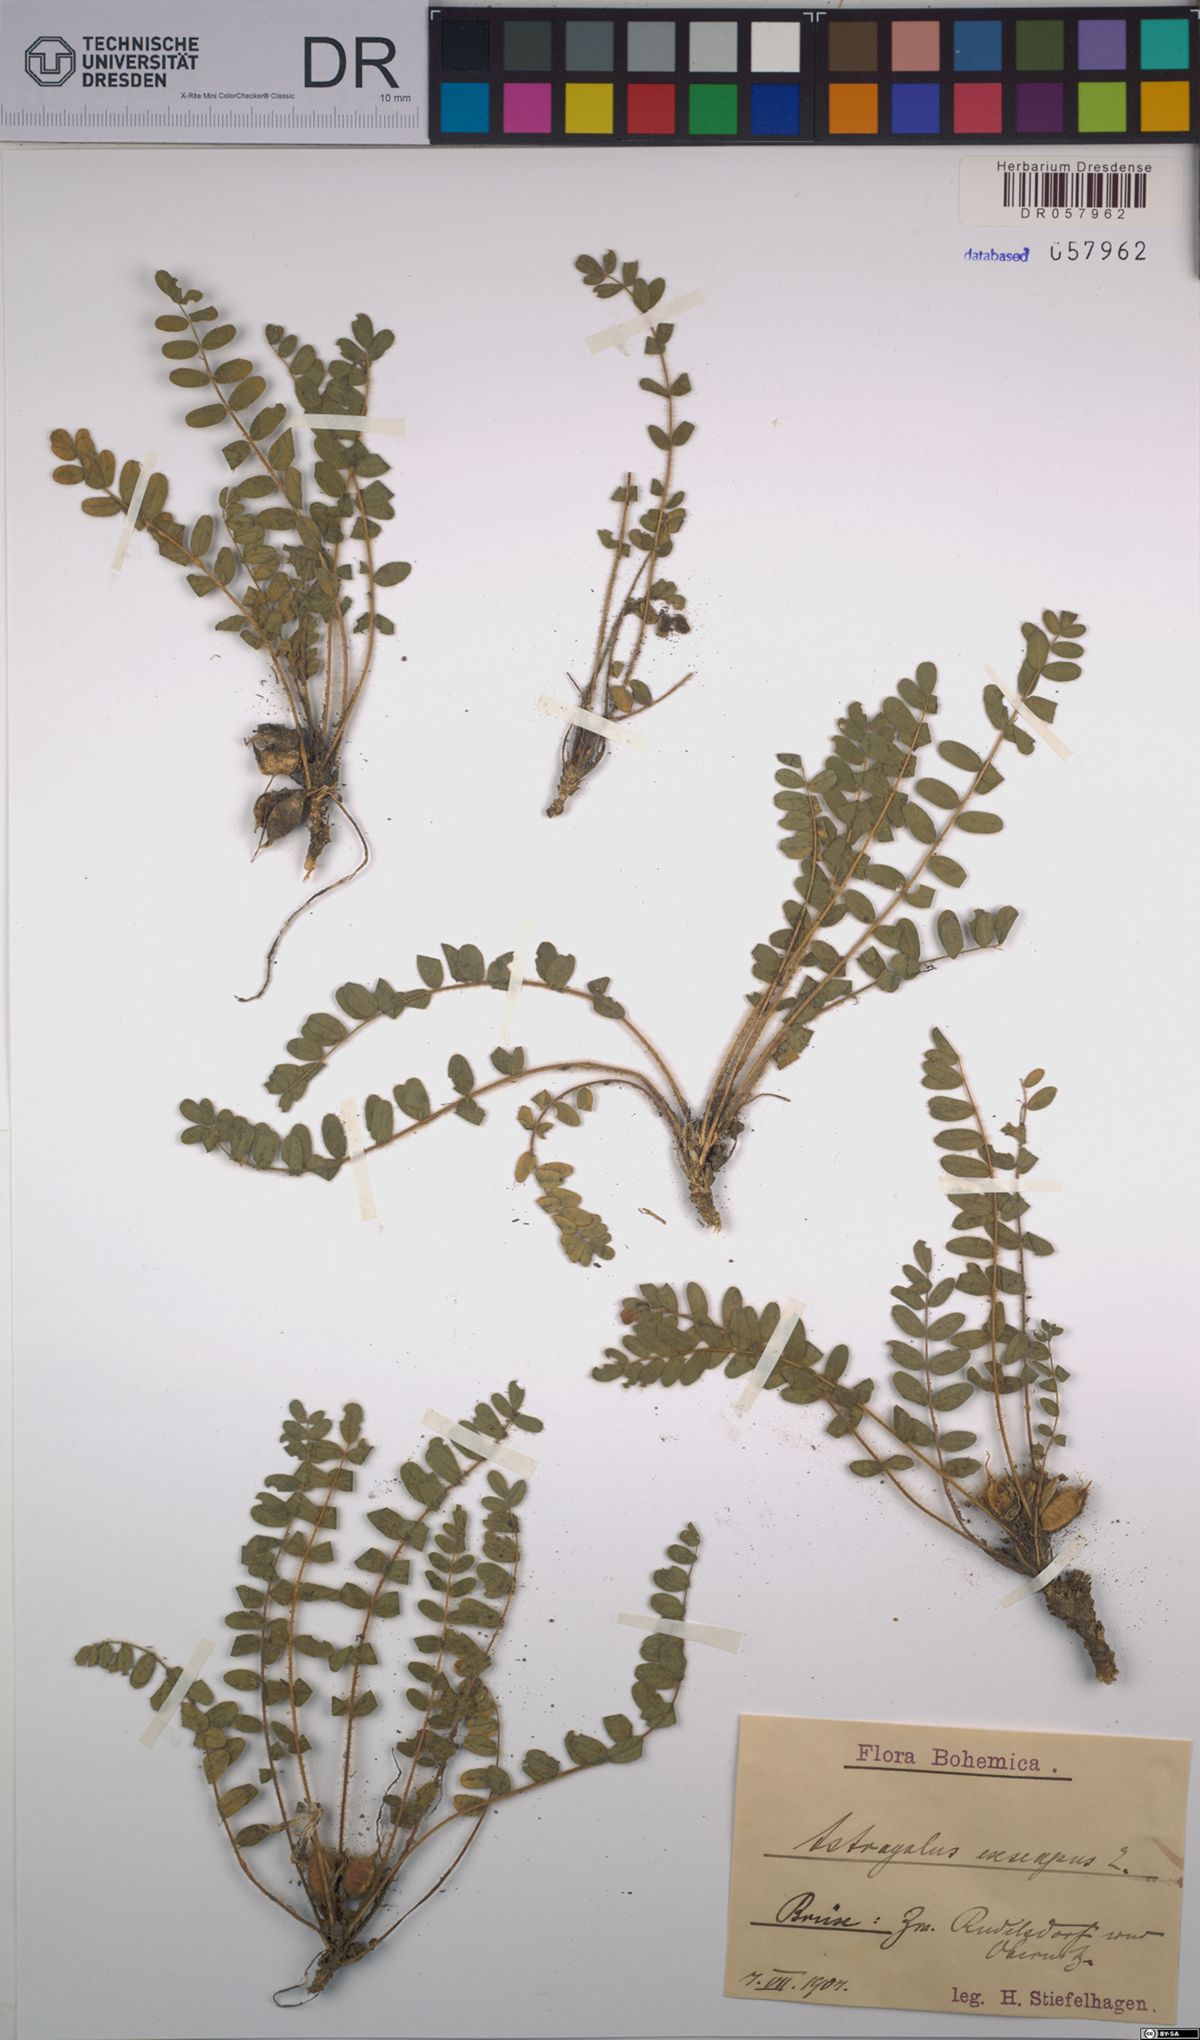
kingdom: Plantae
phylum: Tracheophyta
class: Magnoliopsida
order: Fabales
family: Fabaceae
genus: Astragalus
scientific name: Astragalus exscapus
